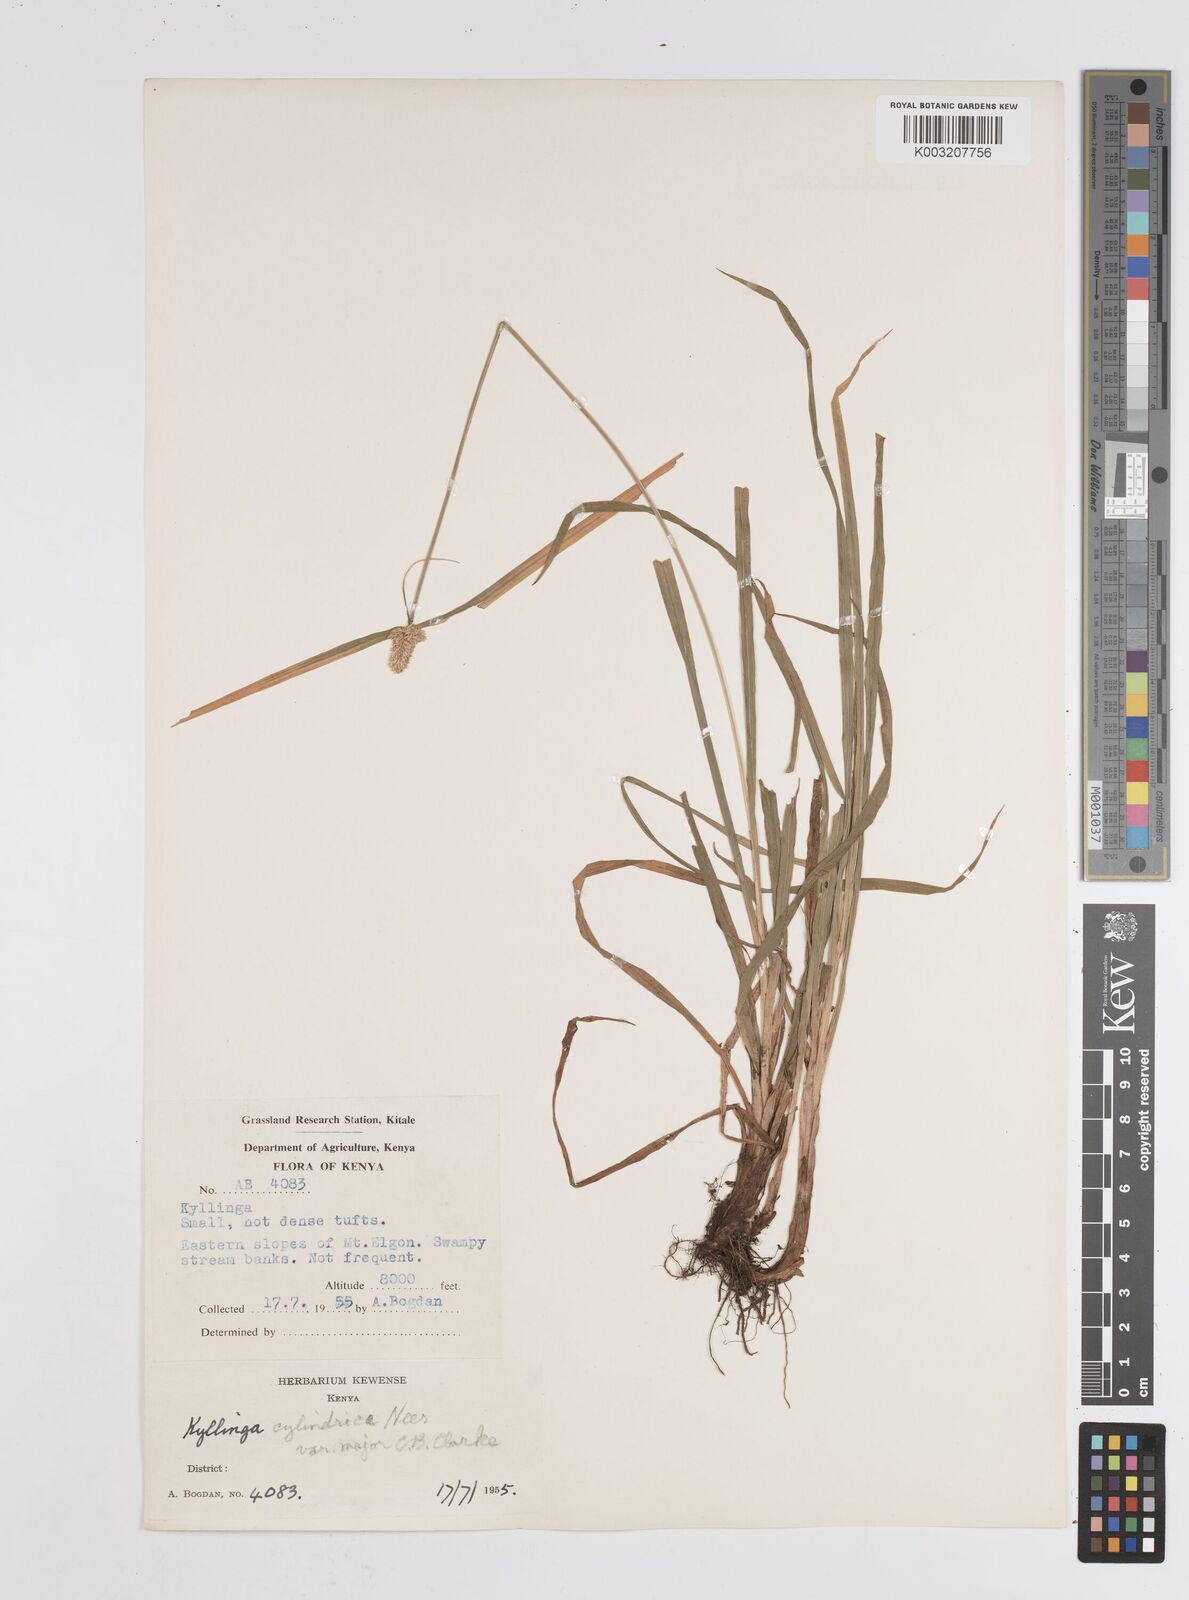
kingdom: Plantae
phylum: Tracheophyta
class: Liliopsida
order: Poales
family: Cyperaceae
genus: Cyperus
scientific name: Cyperus
